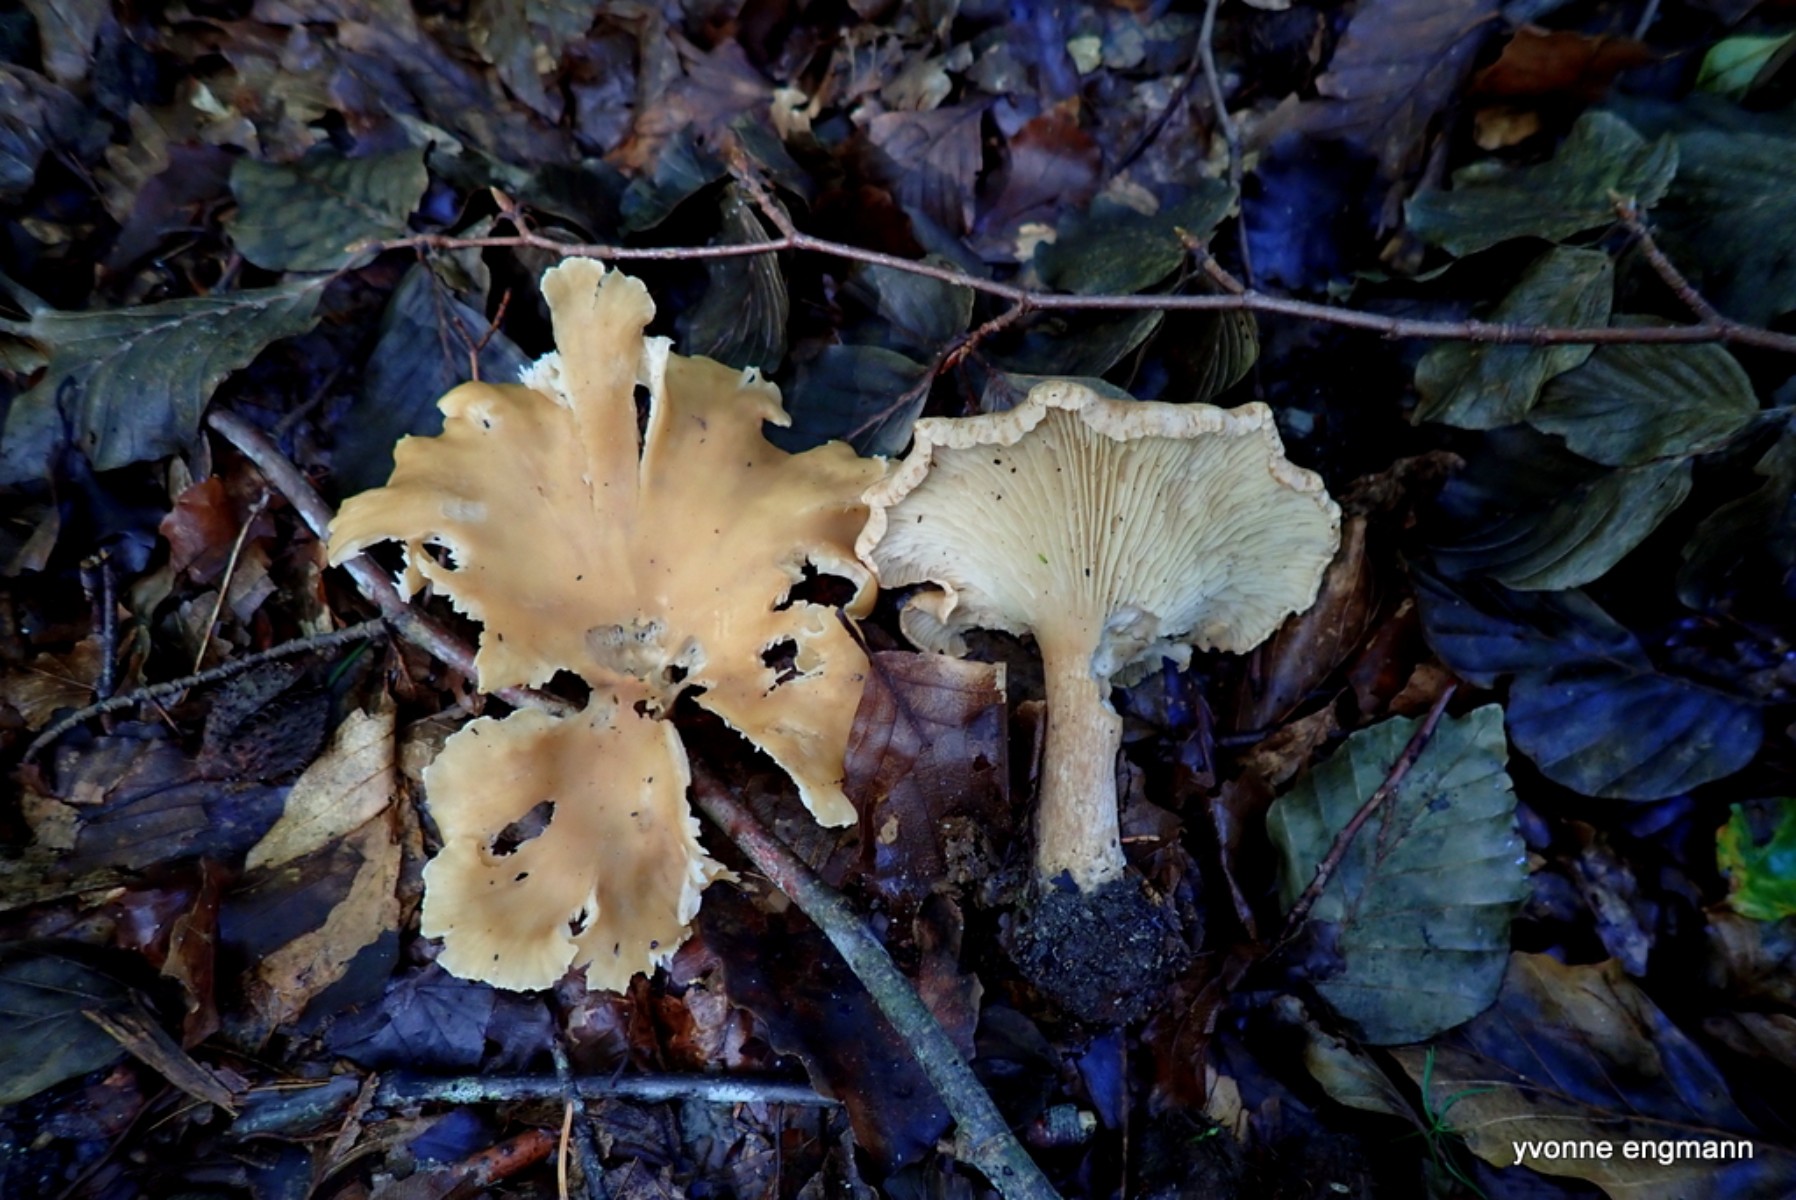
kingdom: Fungi
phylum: Basidiomycota
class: Agaricomycetes
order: Agaricales
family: Tricholomataceae
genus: Infundibulicybe
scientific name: Infundibulicybe gibba
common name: almindelig tragthat
